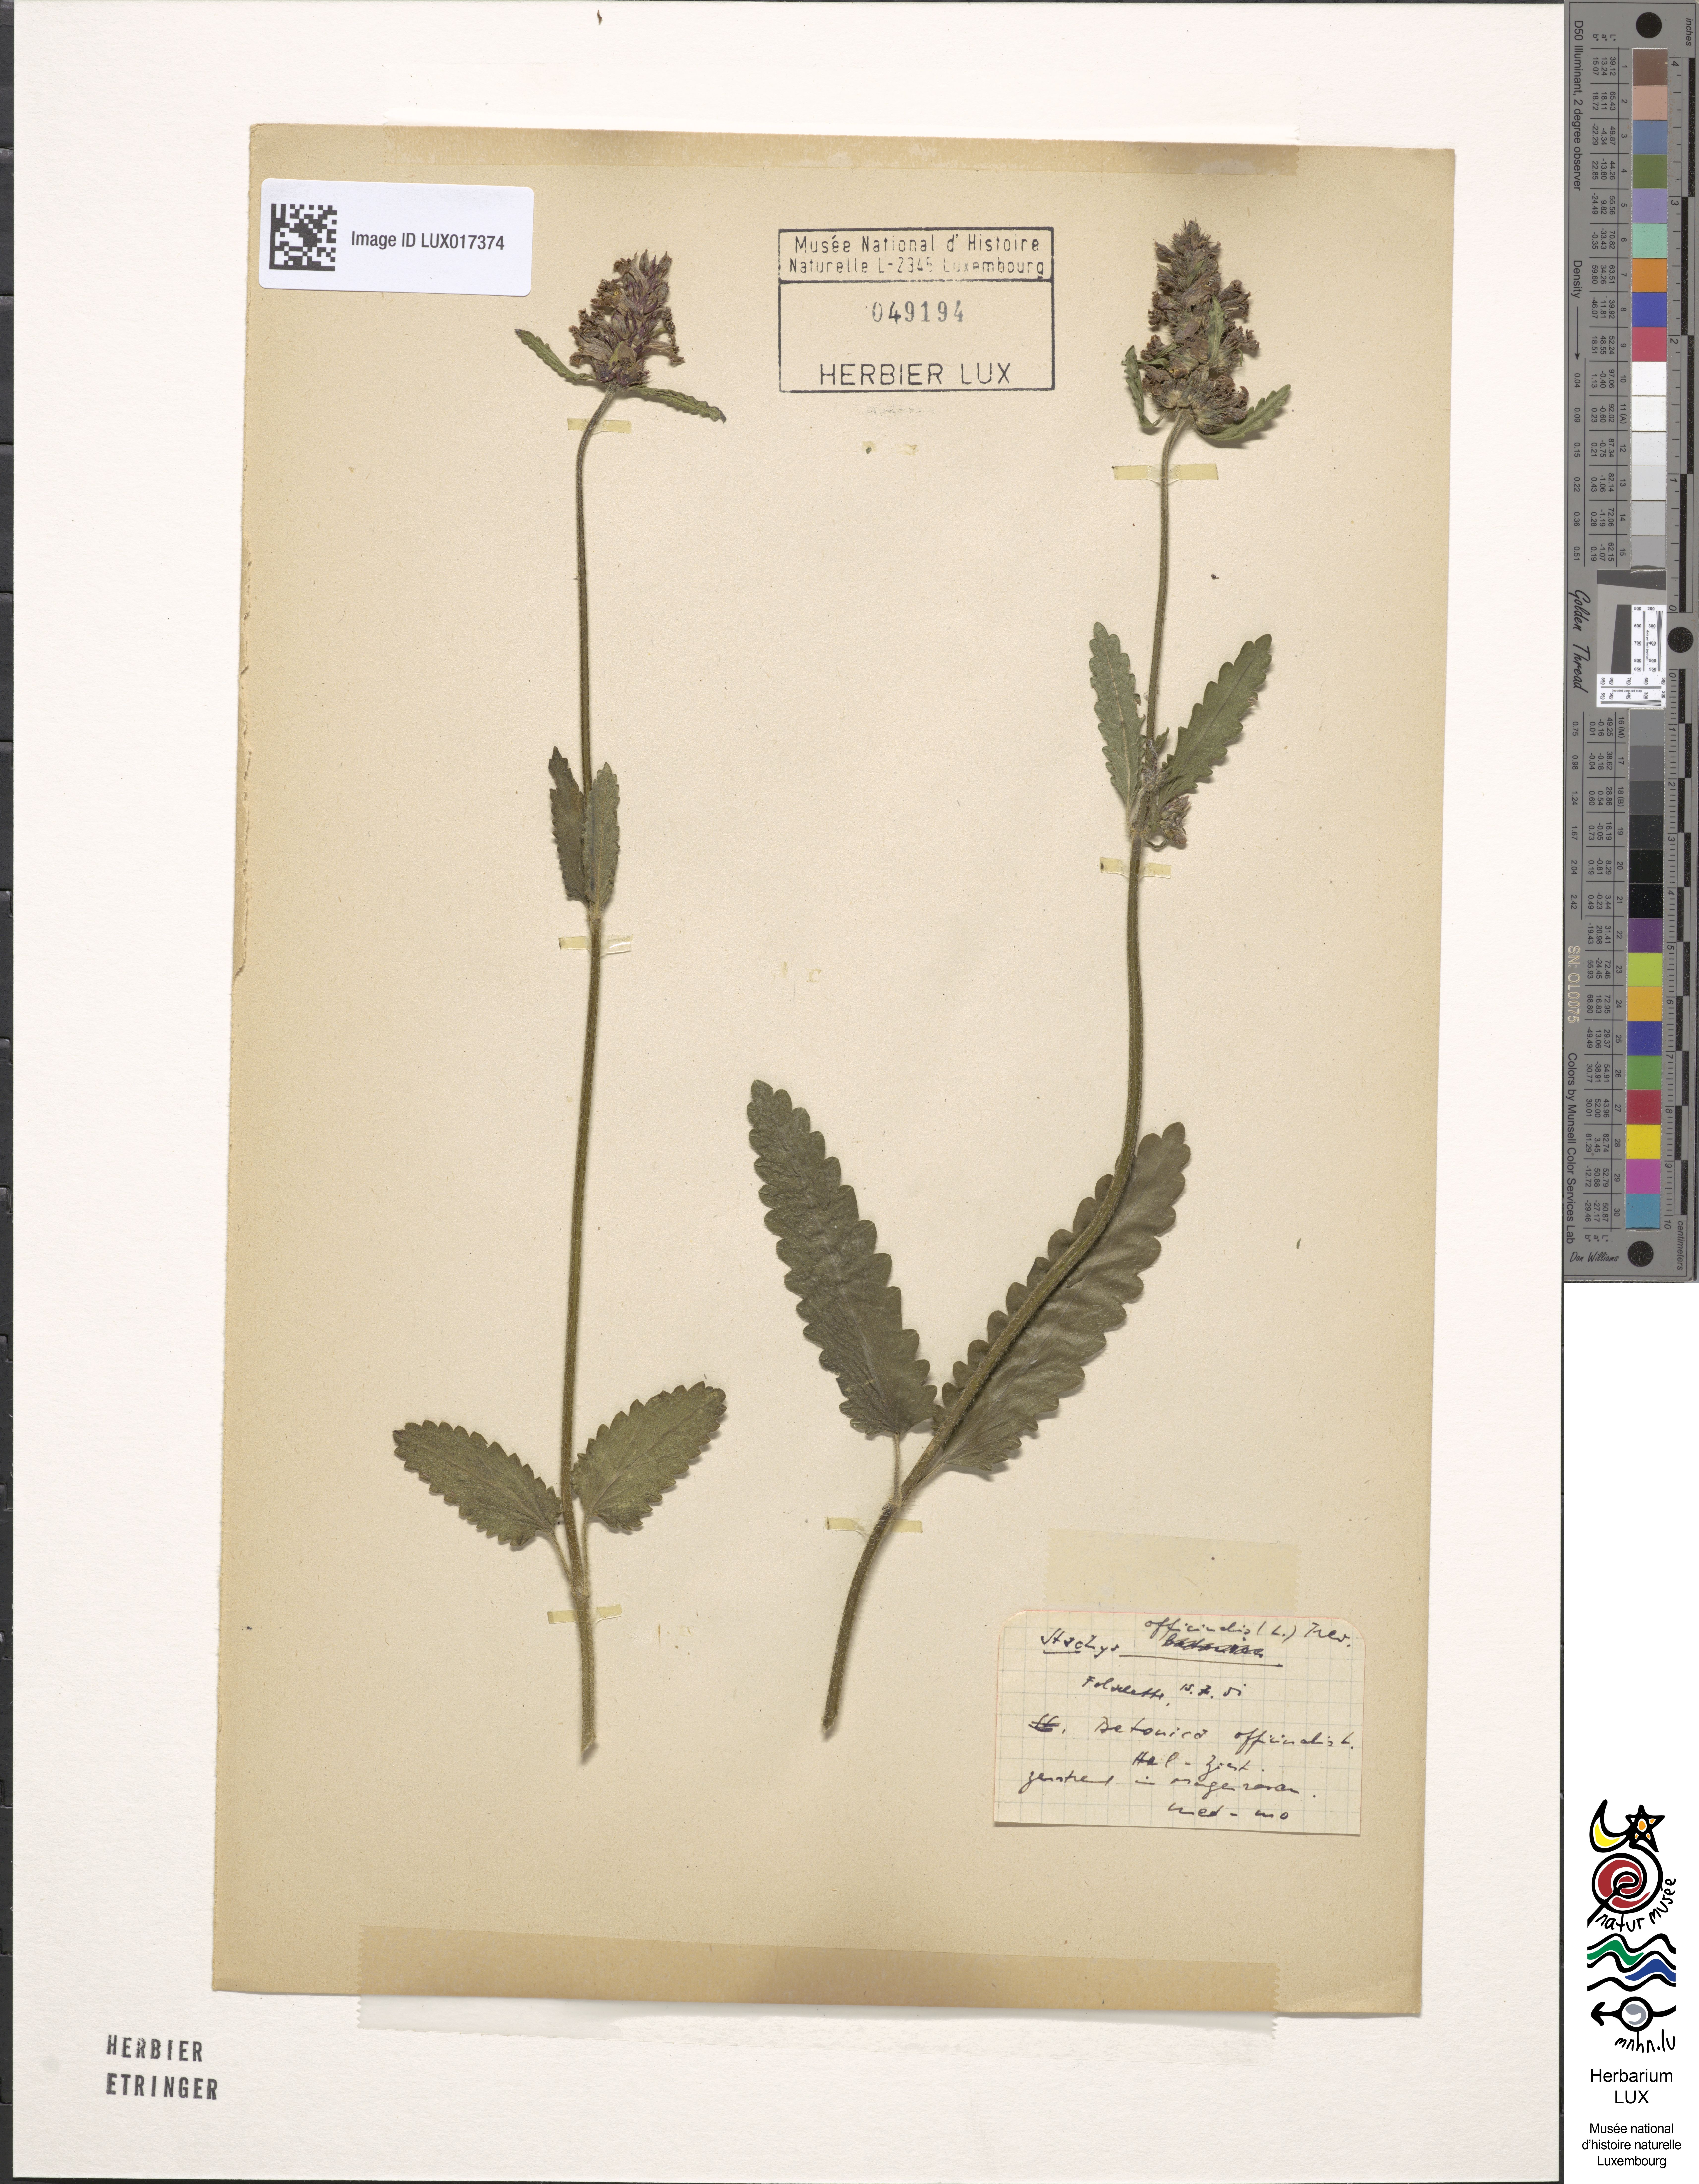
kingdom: Plantae
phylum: Tracheophyta
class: Magnoliopsida
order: Lamiales
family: Lamiaceae
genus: Betonica
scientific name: Betonica officinalis
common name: Bishop's-wort
